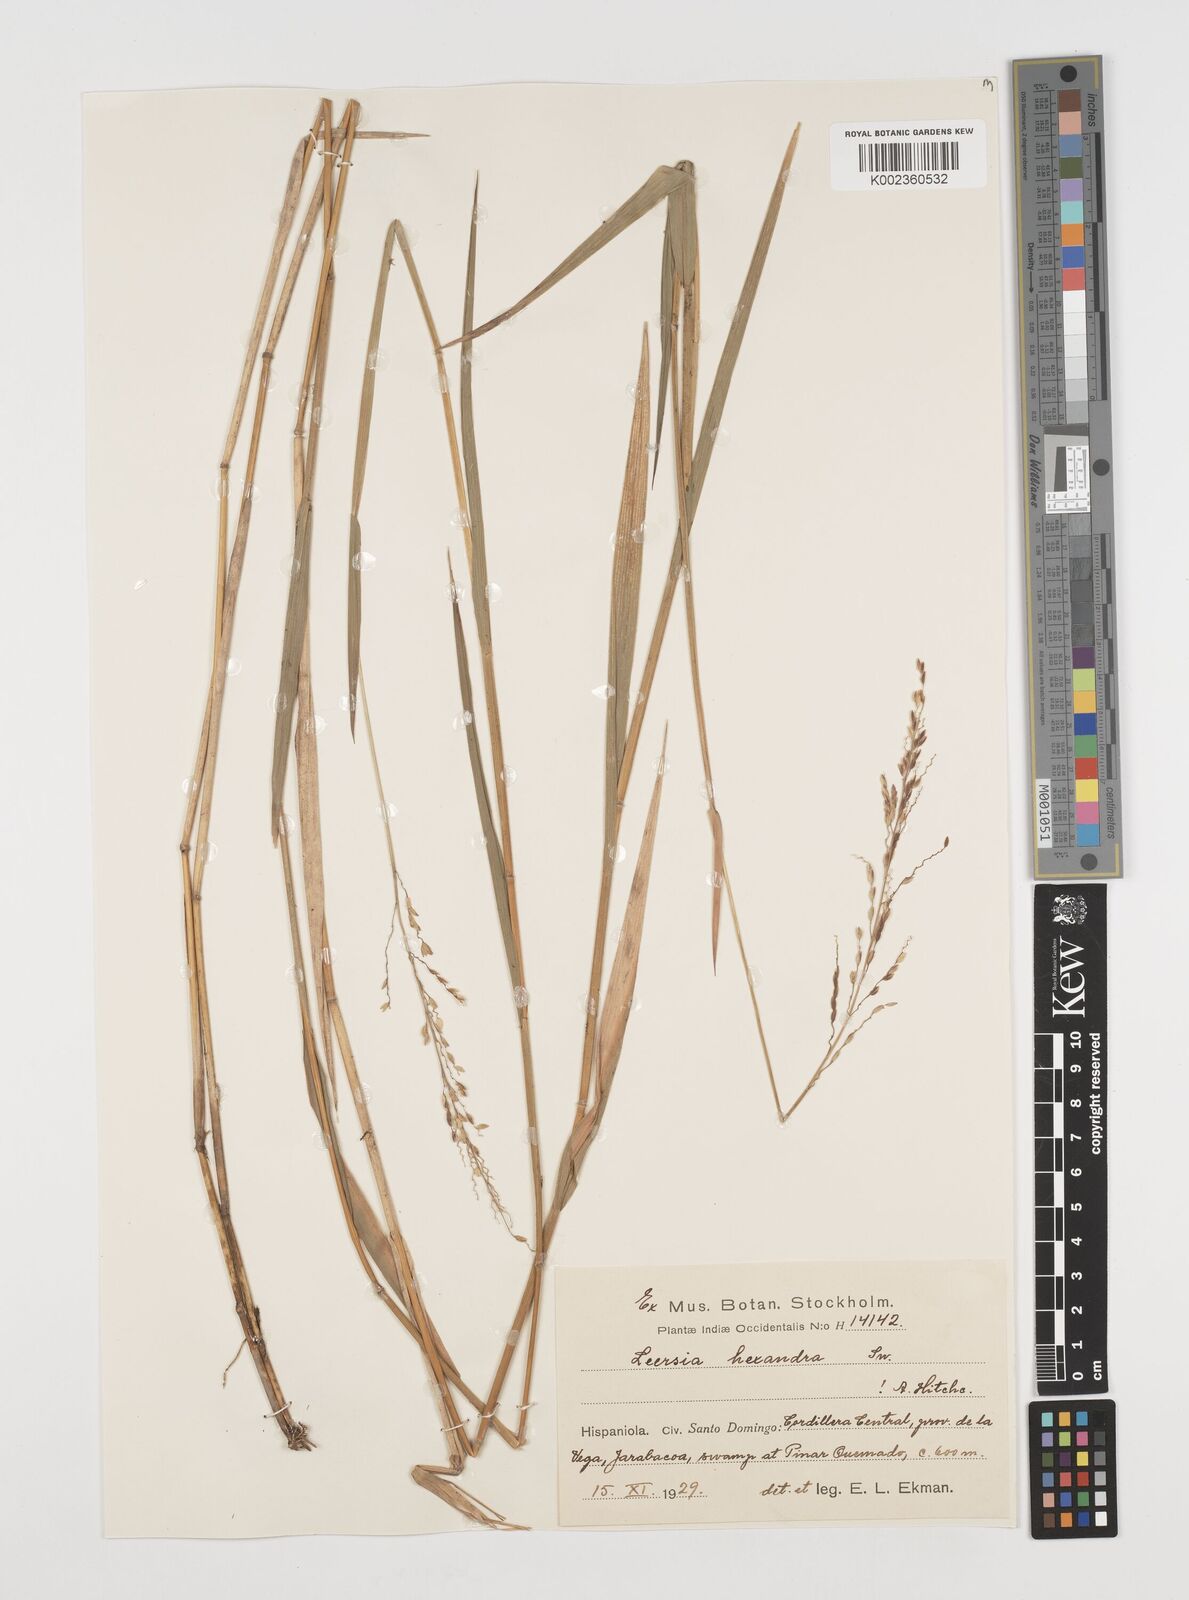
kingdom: Plantae
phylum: Tracheophyta
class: Liliopsida
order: Poales
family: Poaceae
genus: Leersia
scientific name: Leersia hexandra
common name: Southern cut grass
